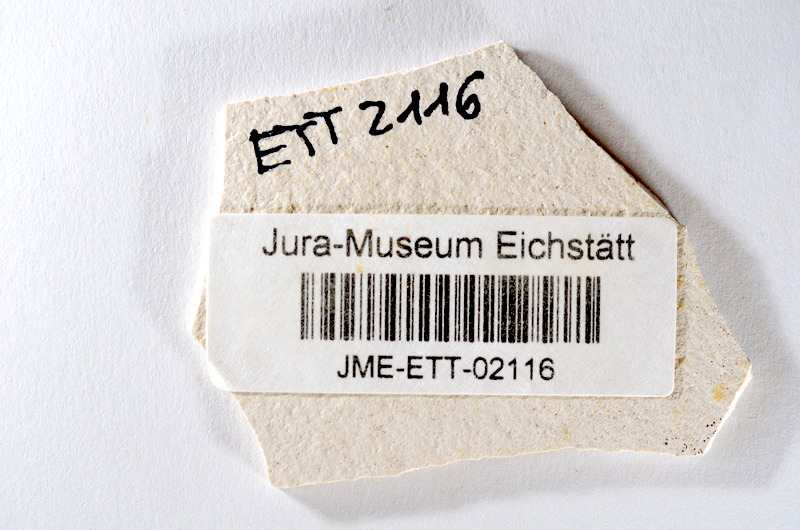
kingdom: Animalia
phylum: Chordata
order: Salmoniformes
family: Orthogonikleithridae
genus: Orthogonikleithrus
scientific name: Orthogonikleithrus hoelli
